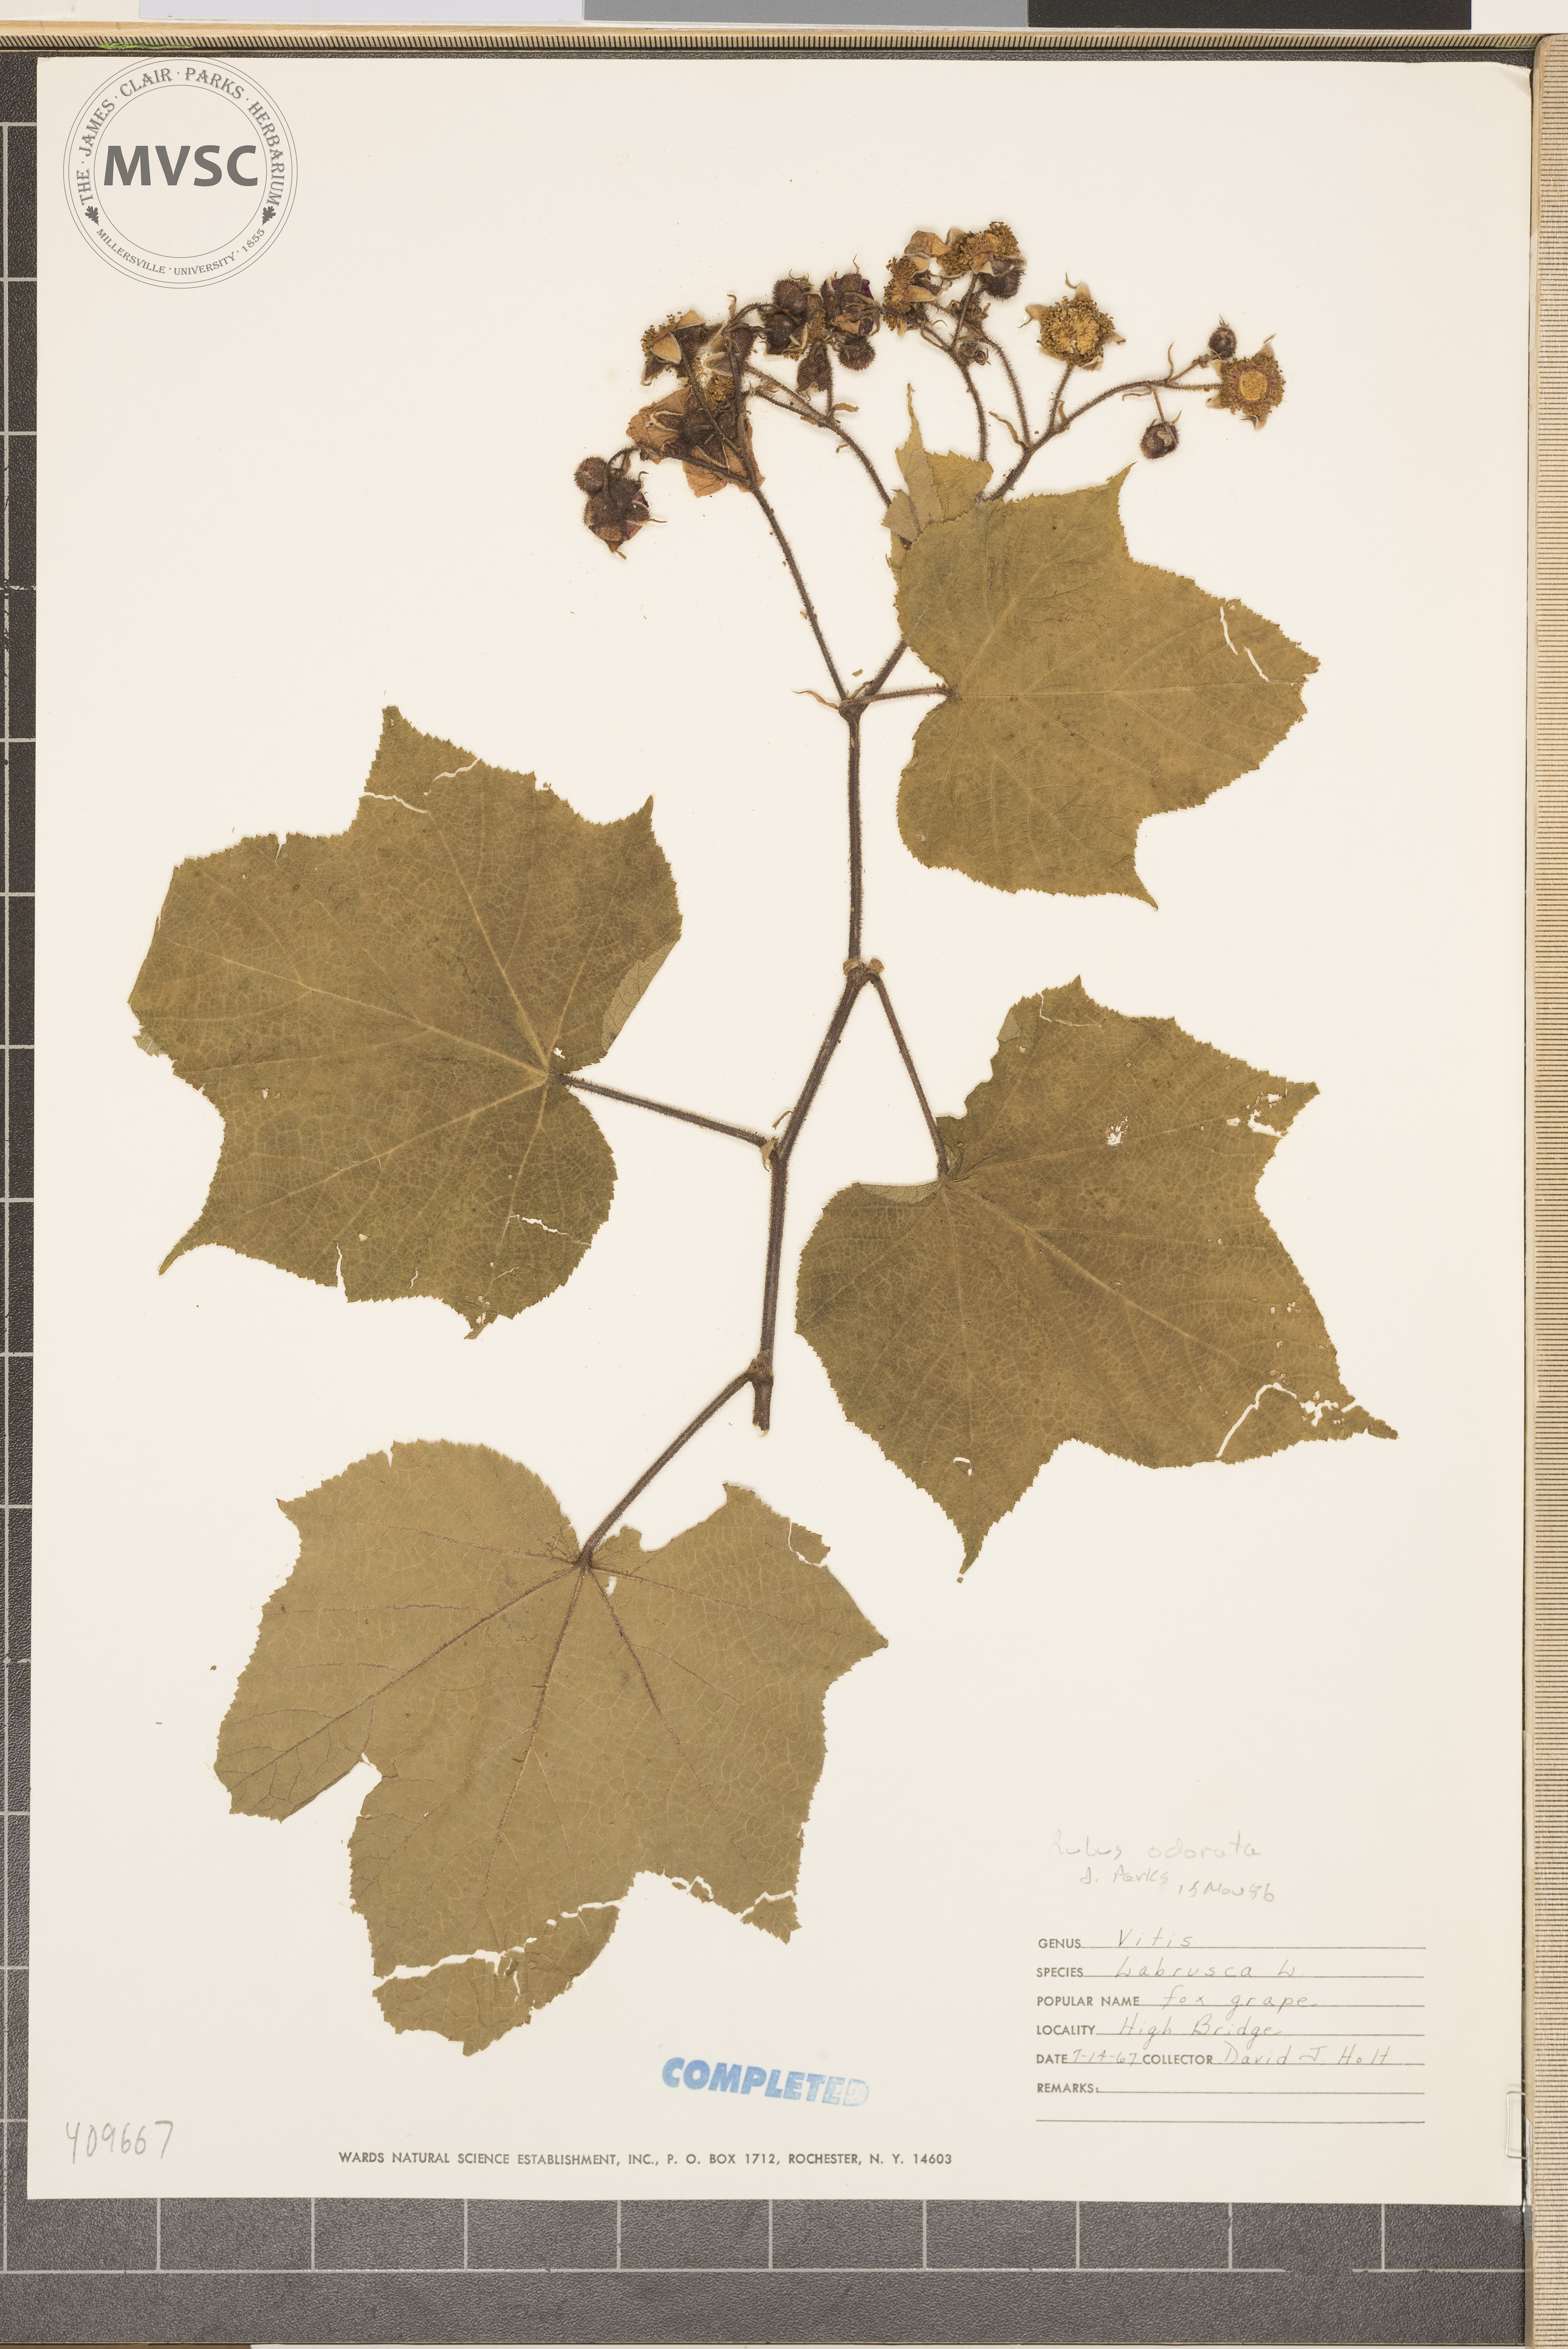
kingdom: Plantae
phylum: Tracheophyta
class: Magnoliopsida
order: Rosales
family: Rosaceae
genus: Rubus
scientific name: Rubus odoratus
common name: Purple-flowered raspberry
